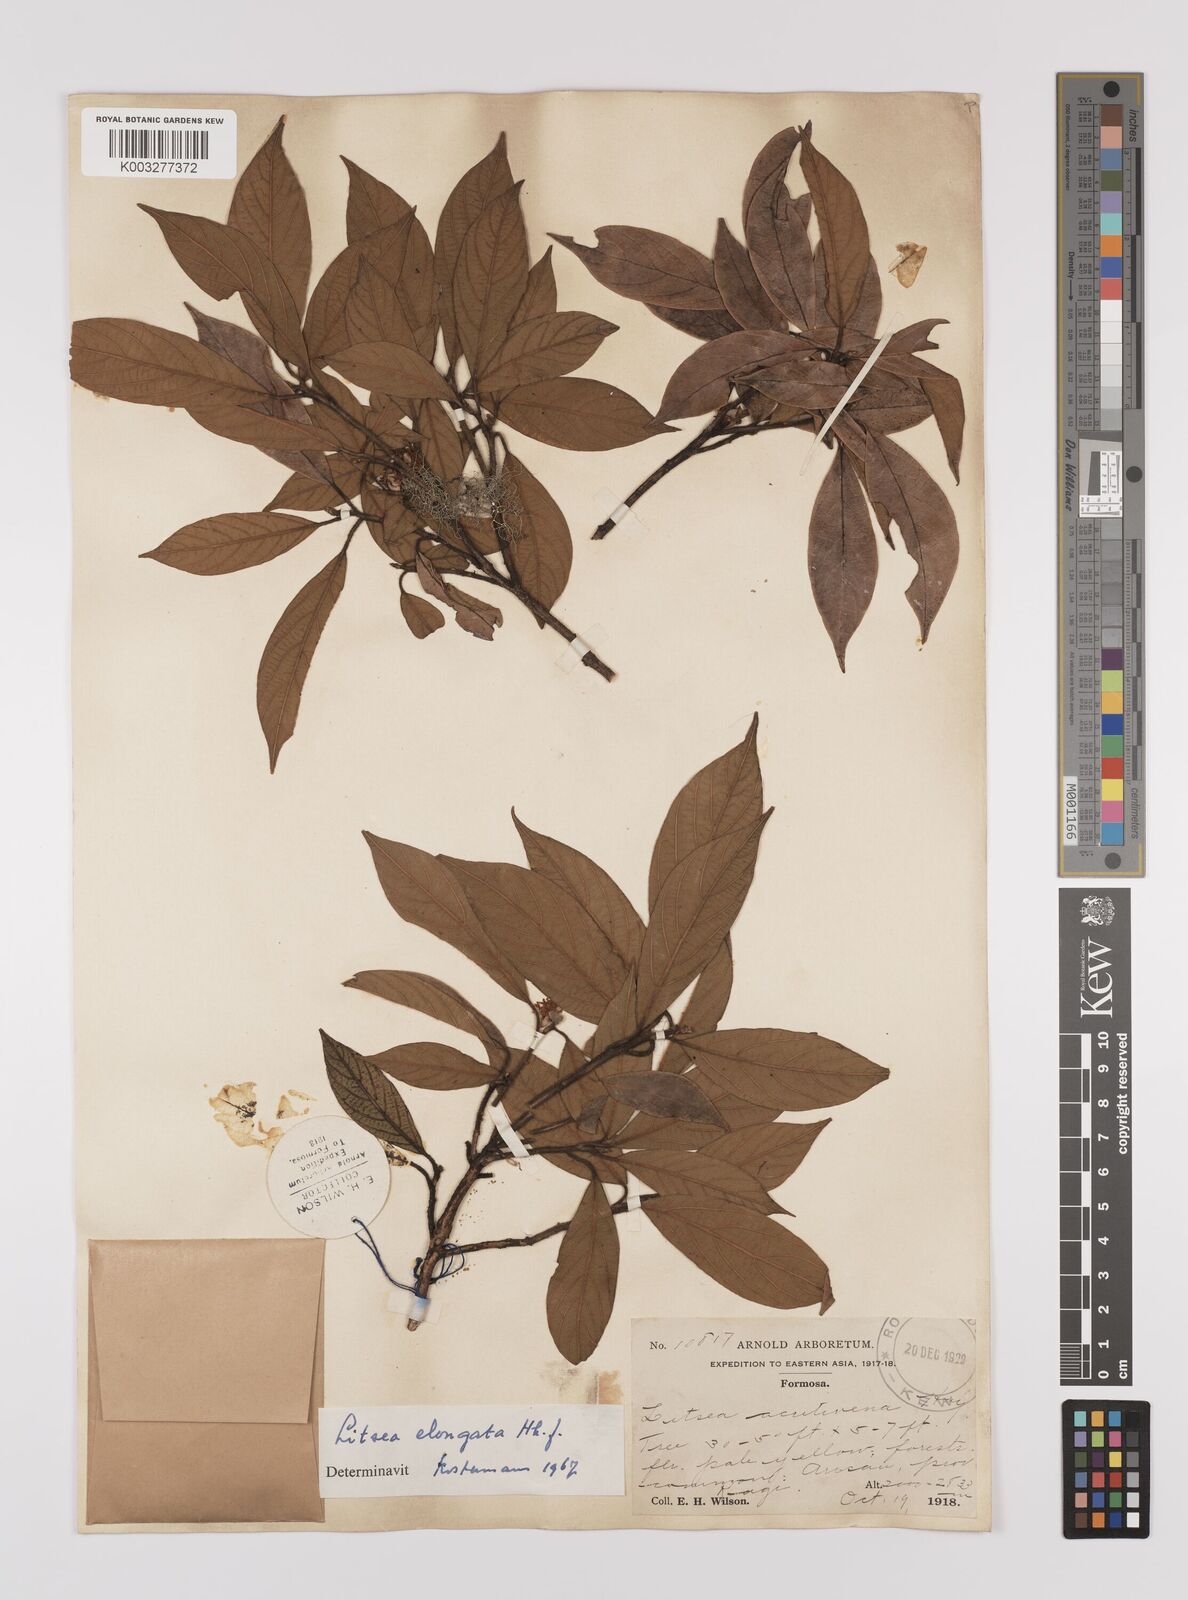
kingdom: Plantae
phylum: Tracheophyta
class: Magnoliopsida
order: Laurales
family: Lauraceae
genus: Litsea
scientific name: Litsea elongata
